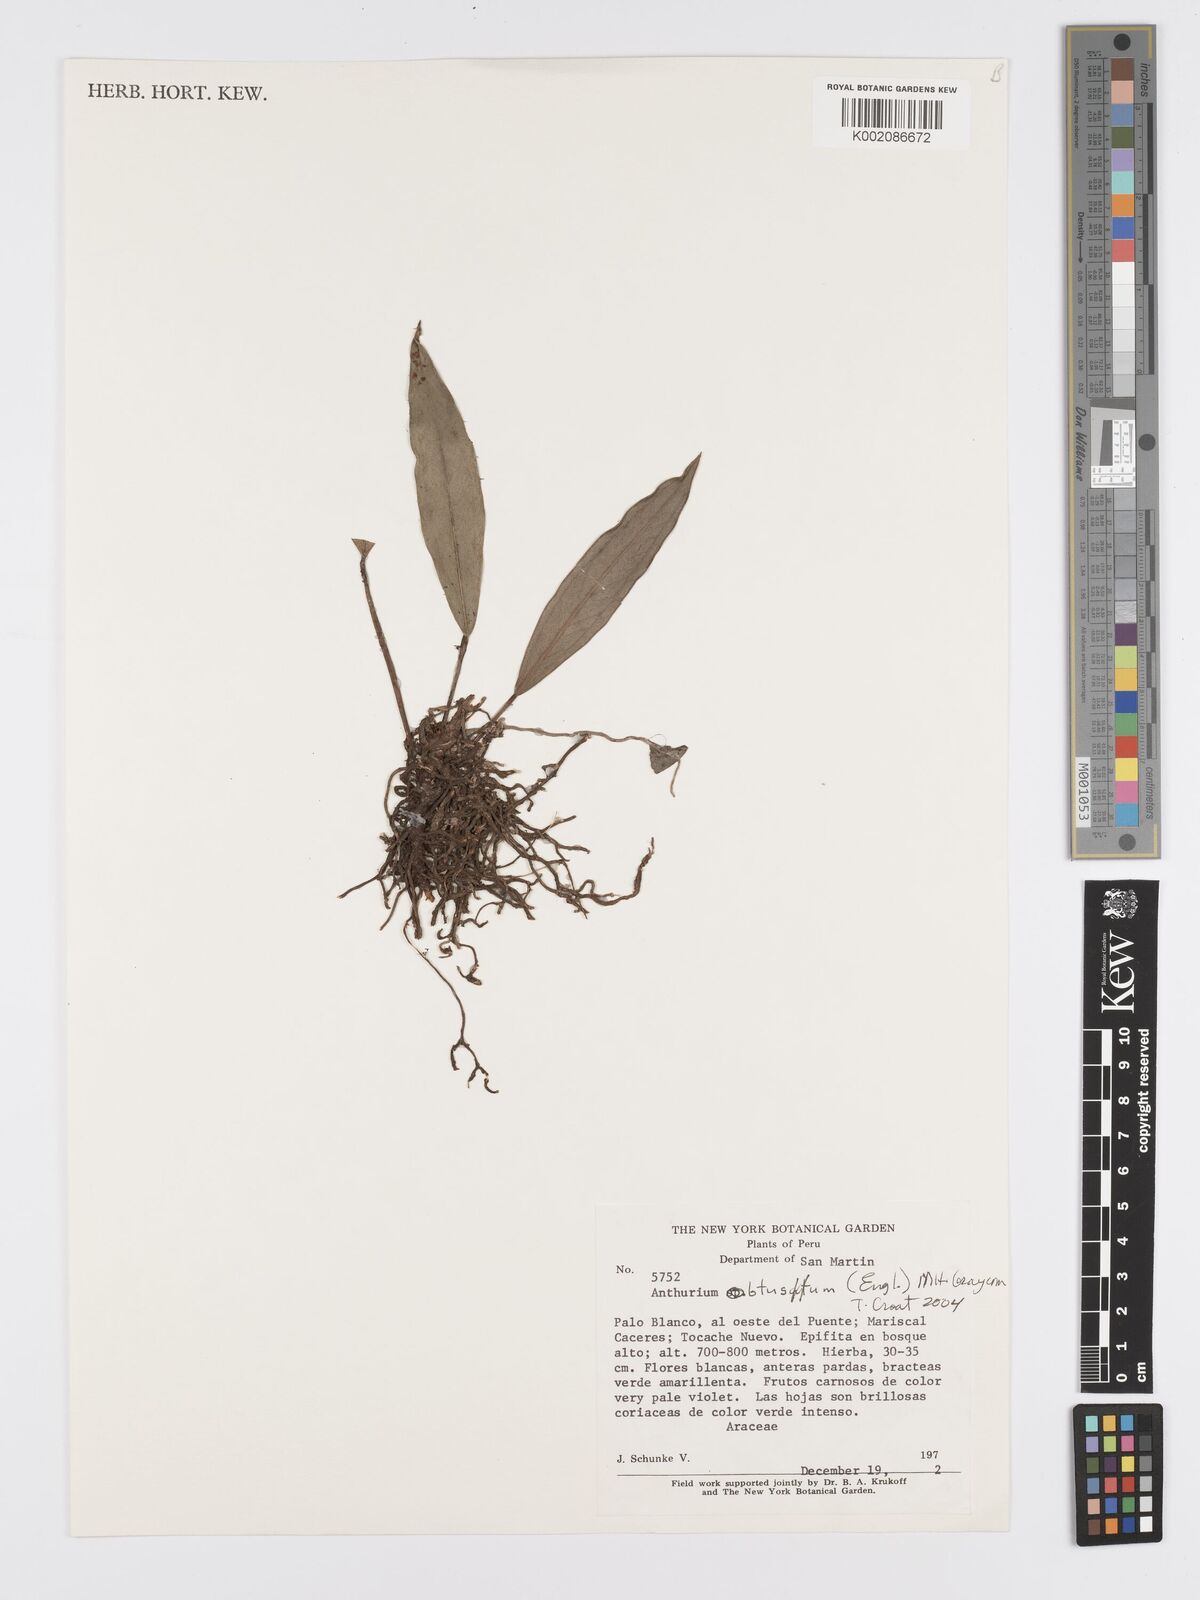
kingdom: Plantae
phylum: Tracheophyta
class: Liliopsida
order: Alismatales
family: Araceae
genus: Anthurium
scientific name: Anthurium obtusum
